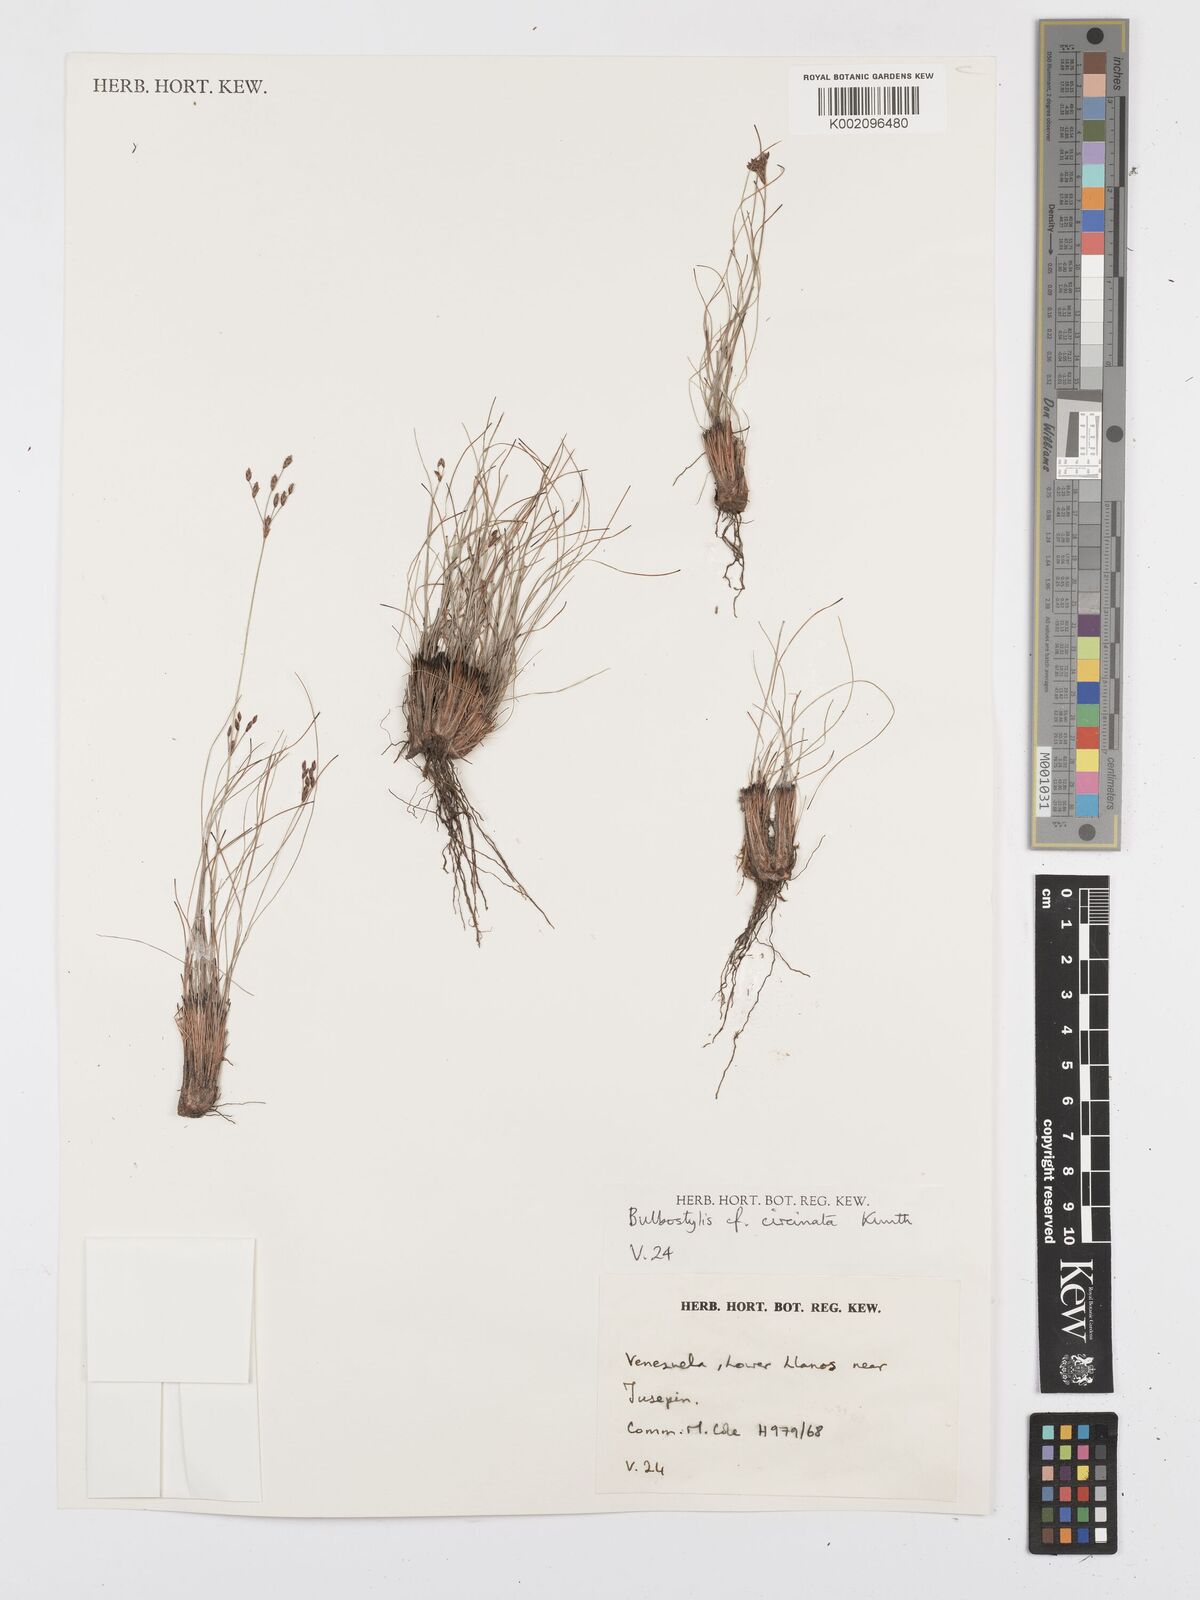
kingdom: Plantae
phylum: Tracheophyta
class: Liliopsida
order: Poales
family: Cyperaceae
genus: Bulbostylis
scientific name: Bulbostylis circinata
